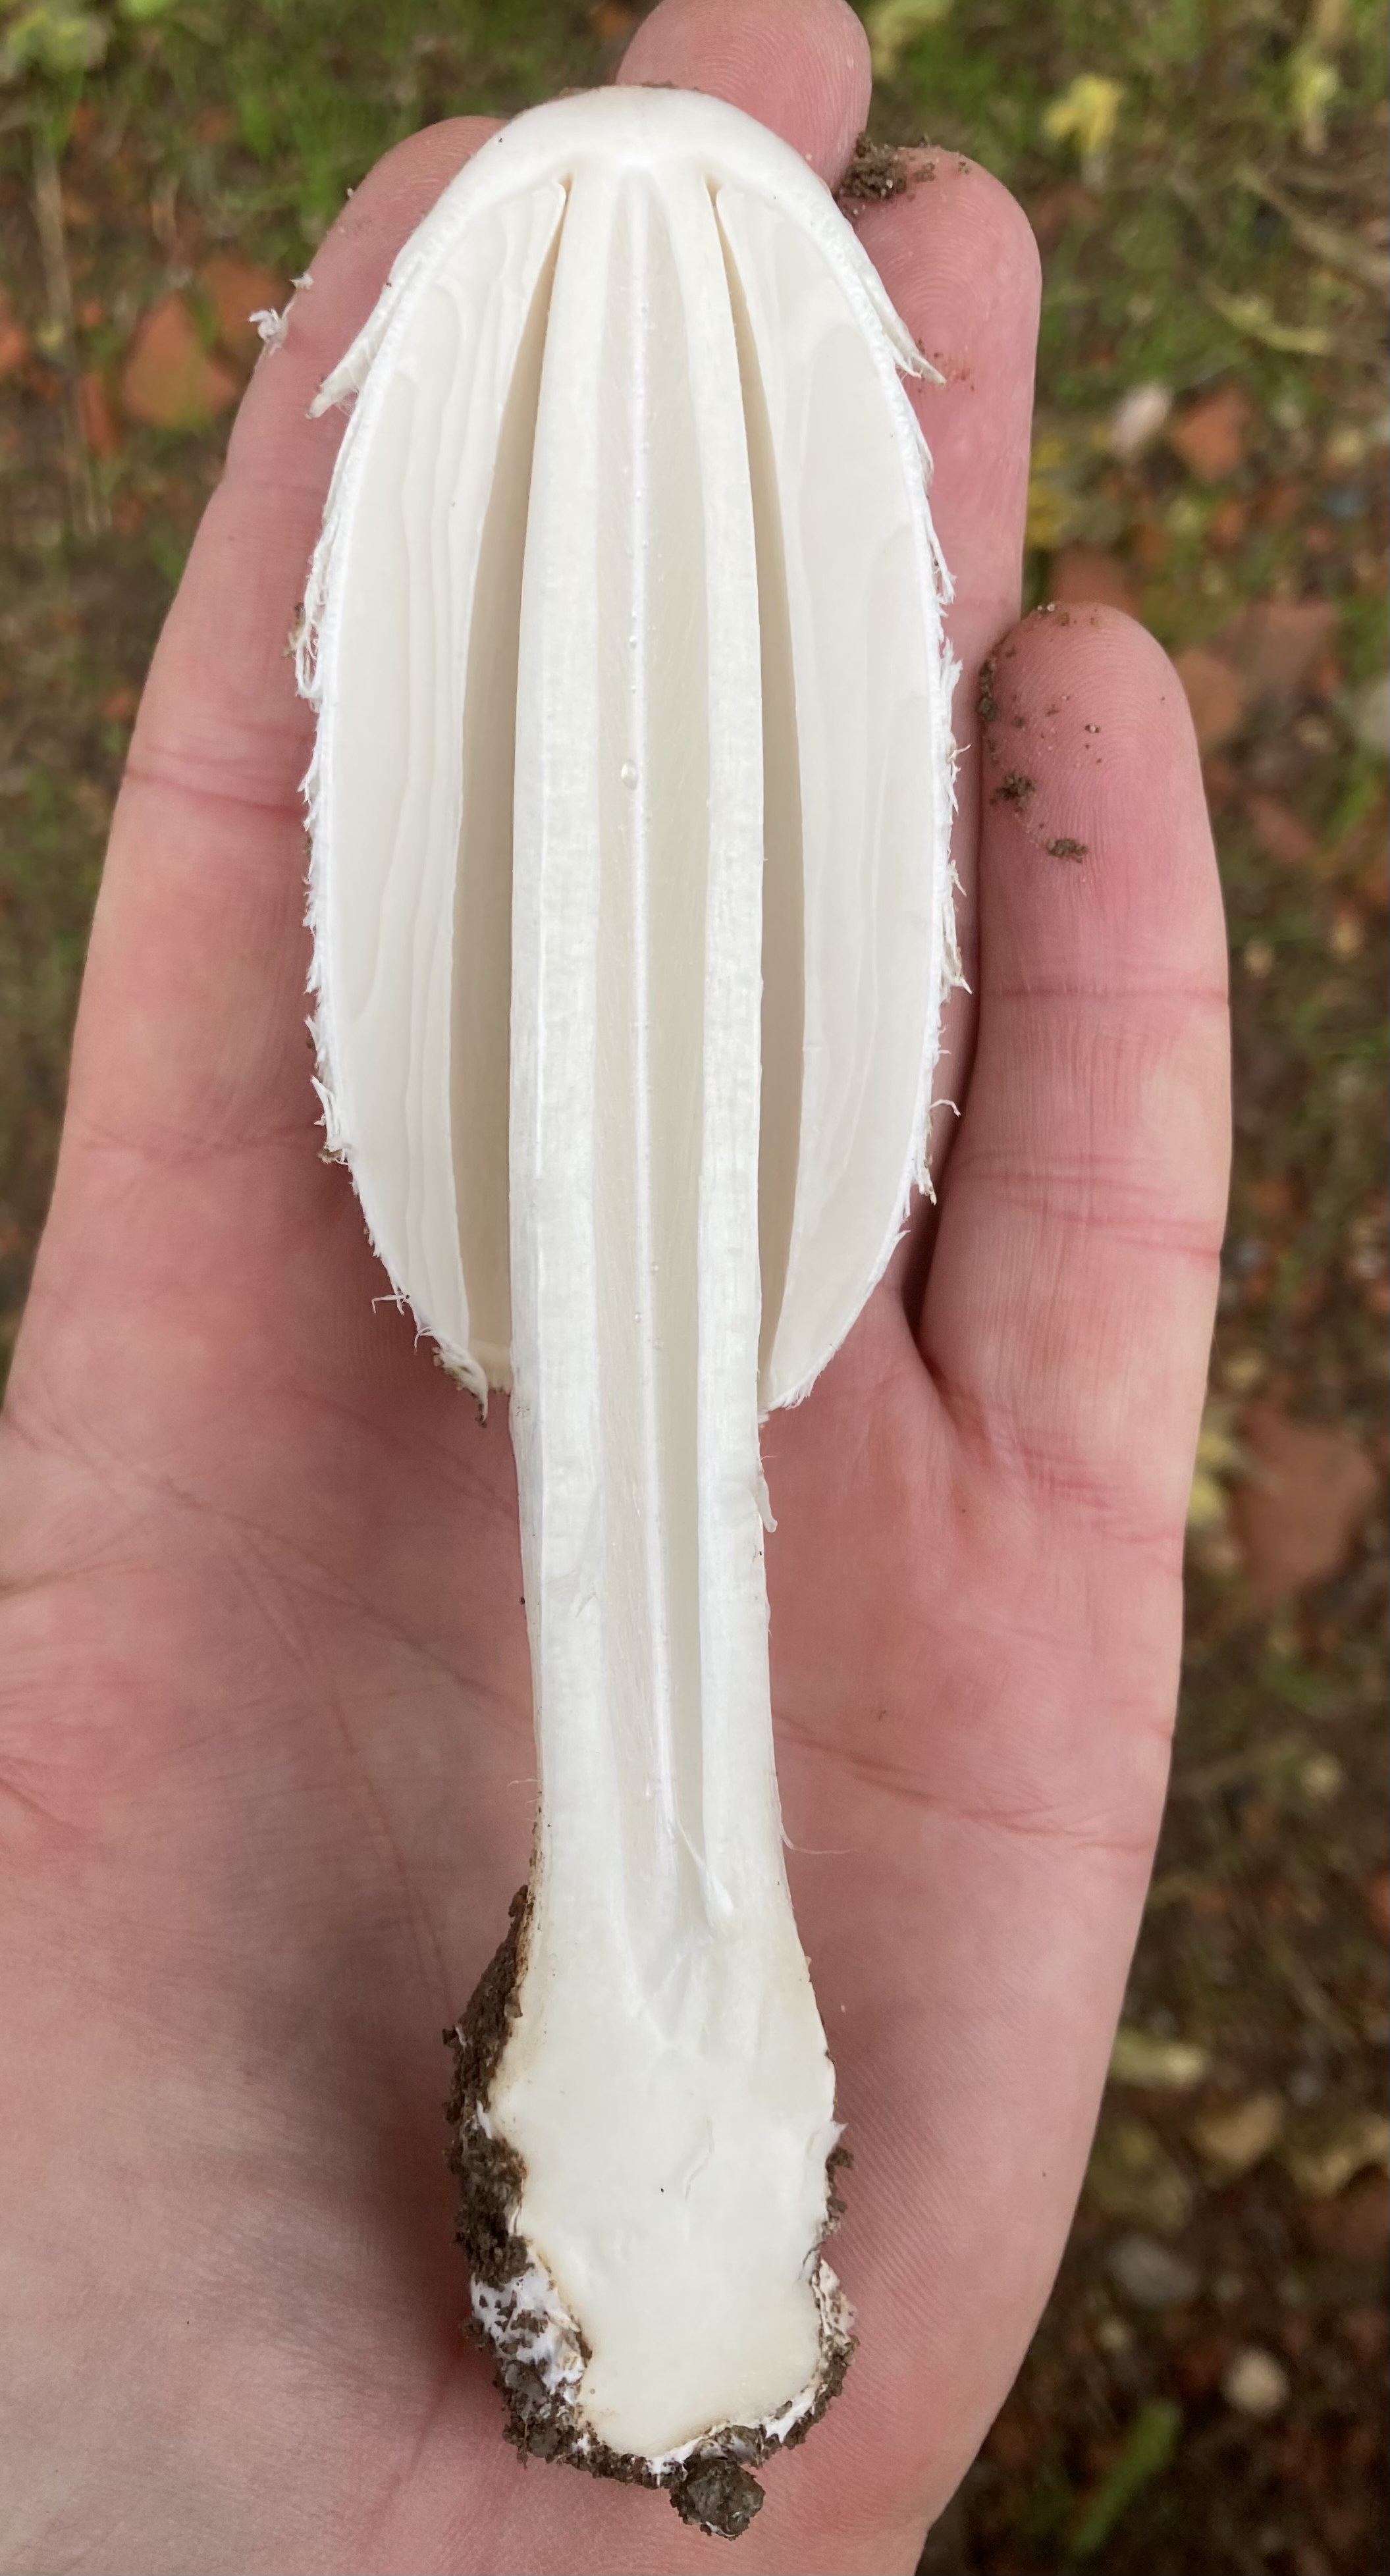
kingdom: Fungi
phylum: Basidiomycota
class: Agaricomycetes
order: Agaricales
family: Agaricaceae
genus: Coprinus
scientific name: Coprinus comatus
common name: stor parykhat
